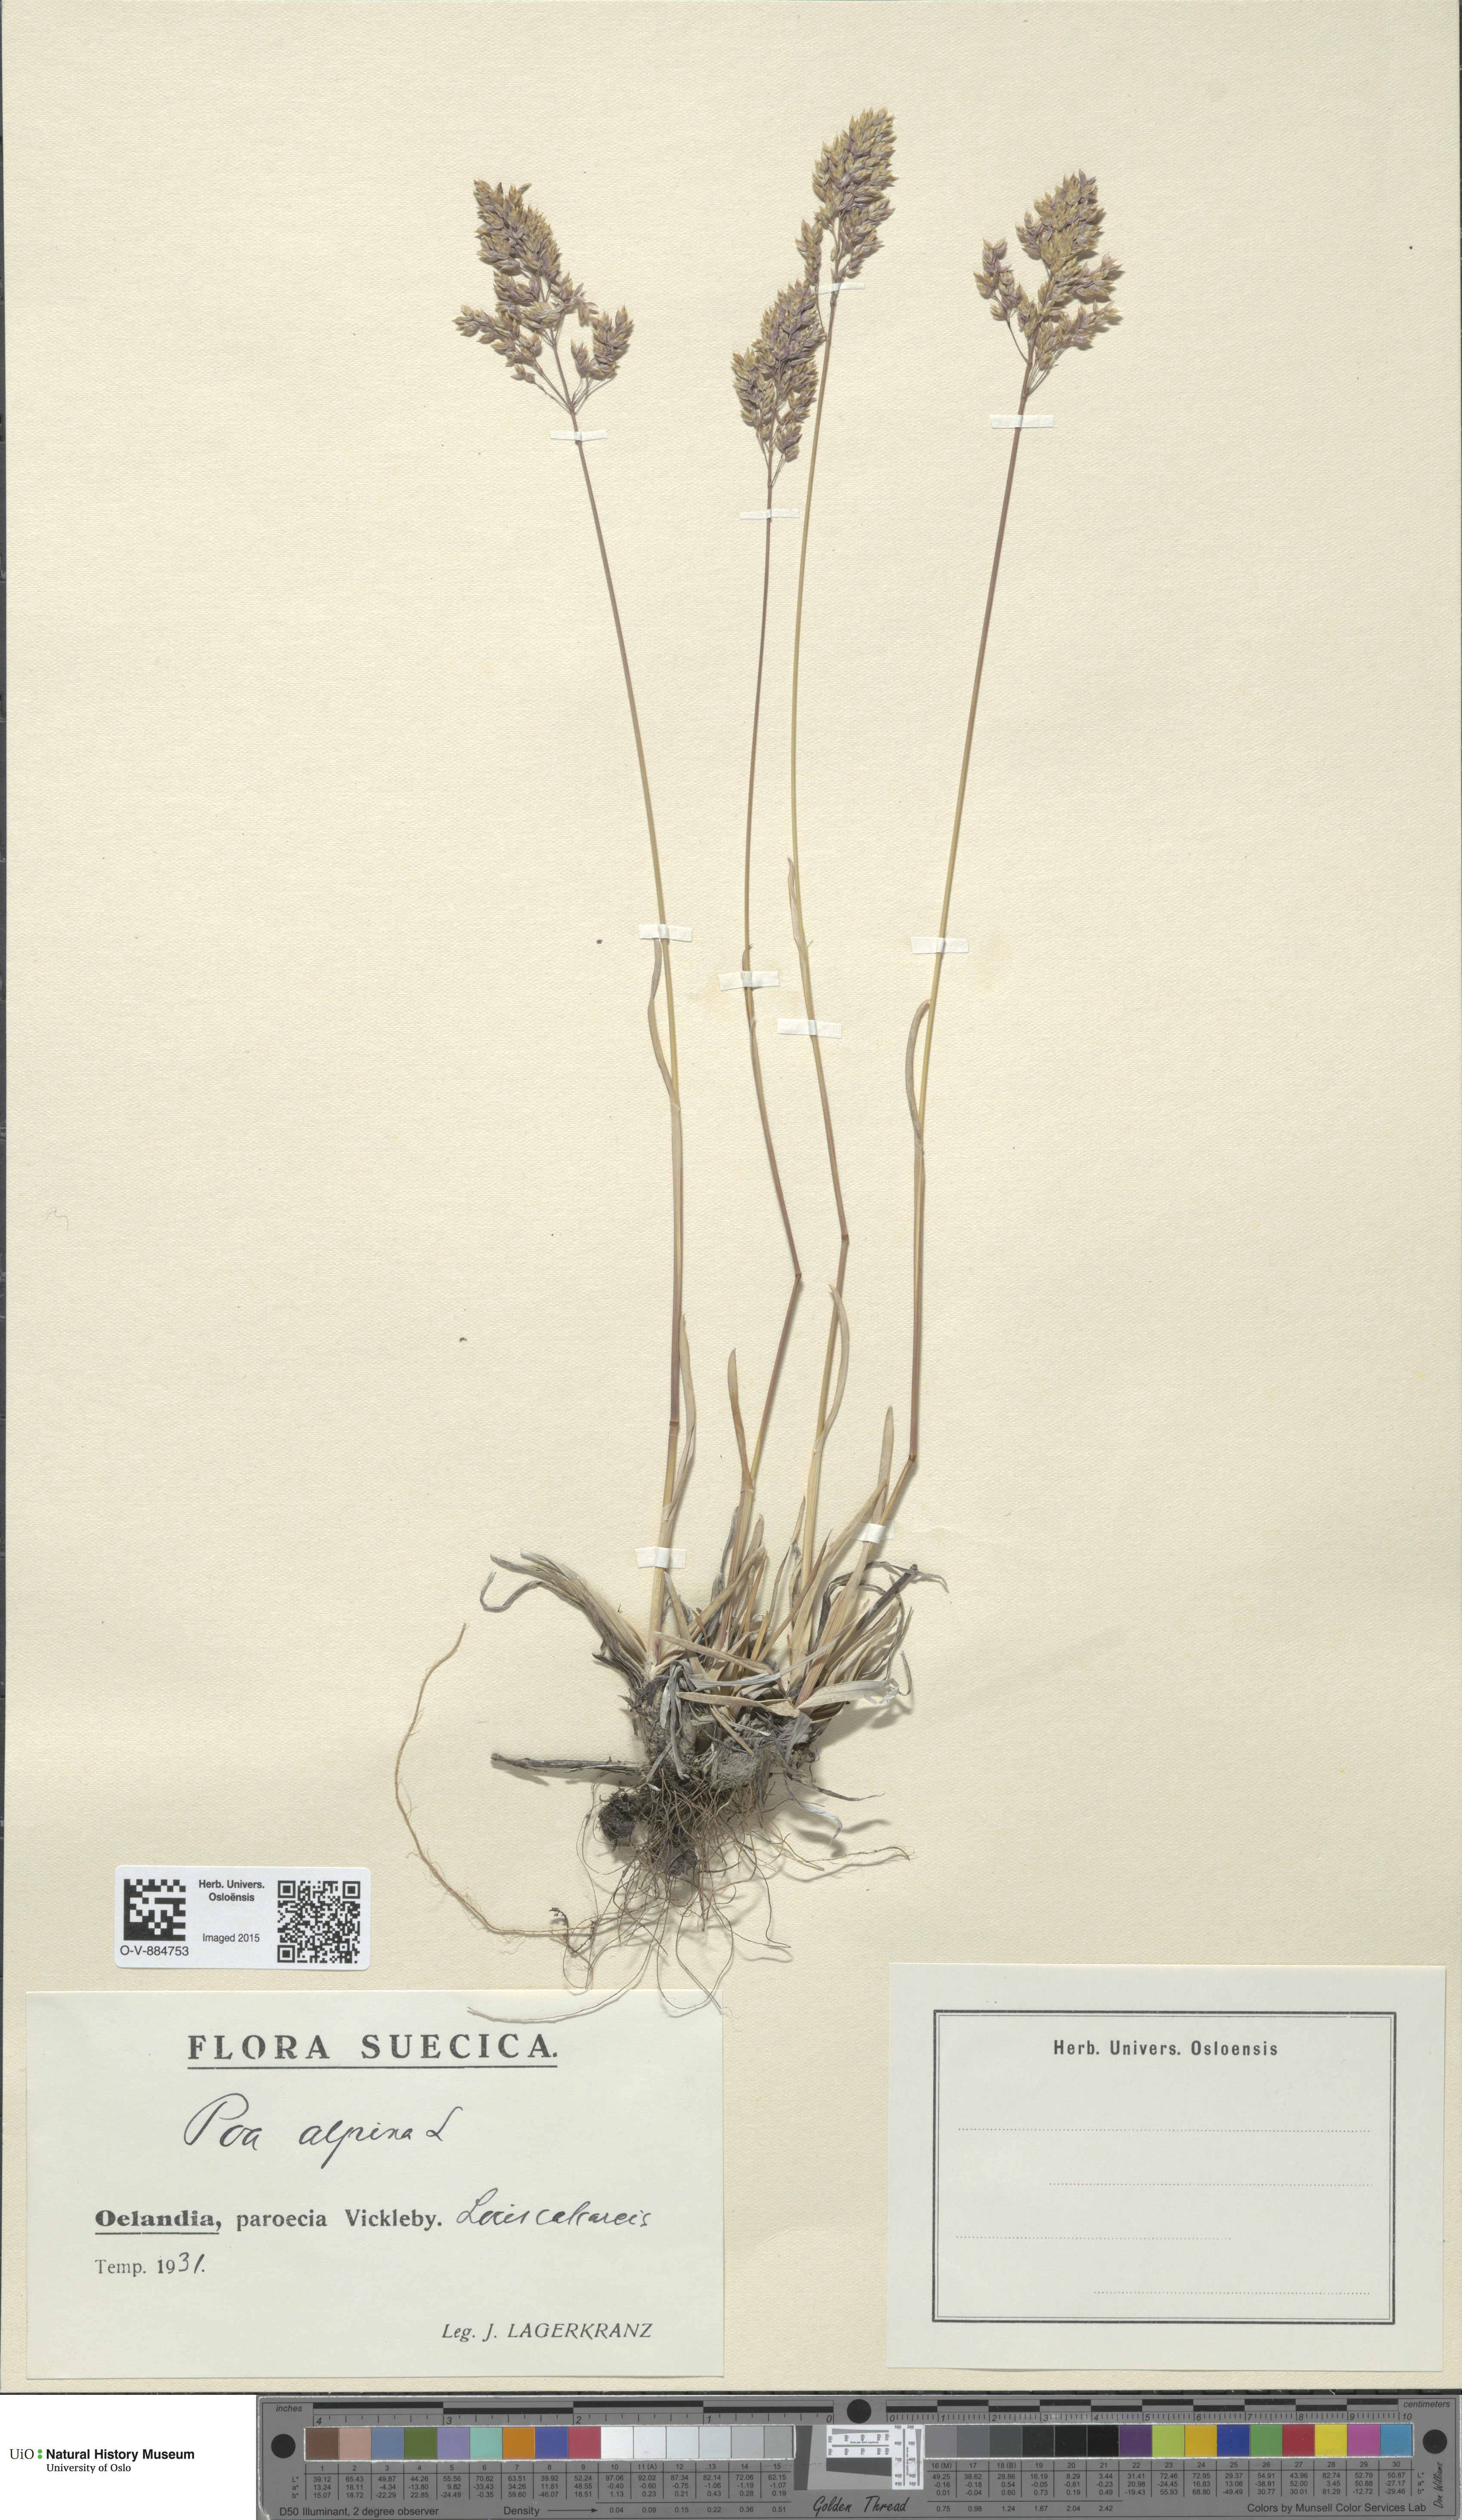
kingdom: Plantae
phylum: Tracheophyta
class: Liliopsida
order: Poales
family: Poaceae
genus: Poa
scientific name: Poa alpina
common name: Alpine bluegrass
